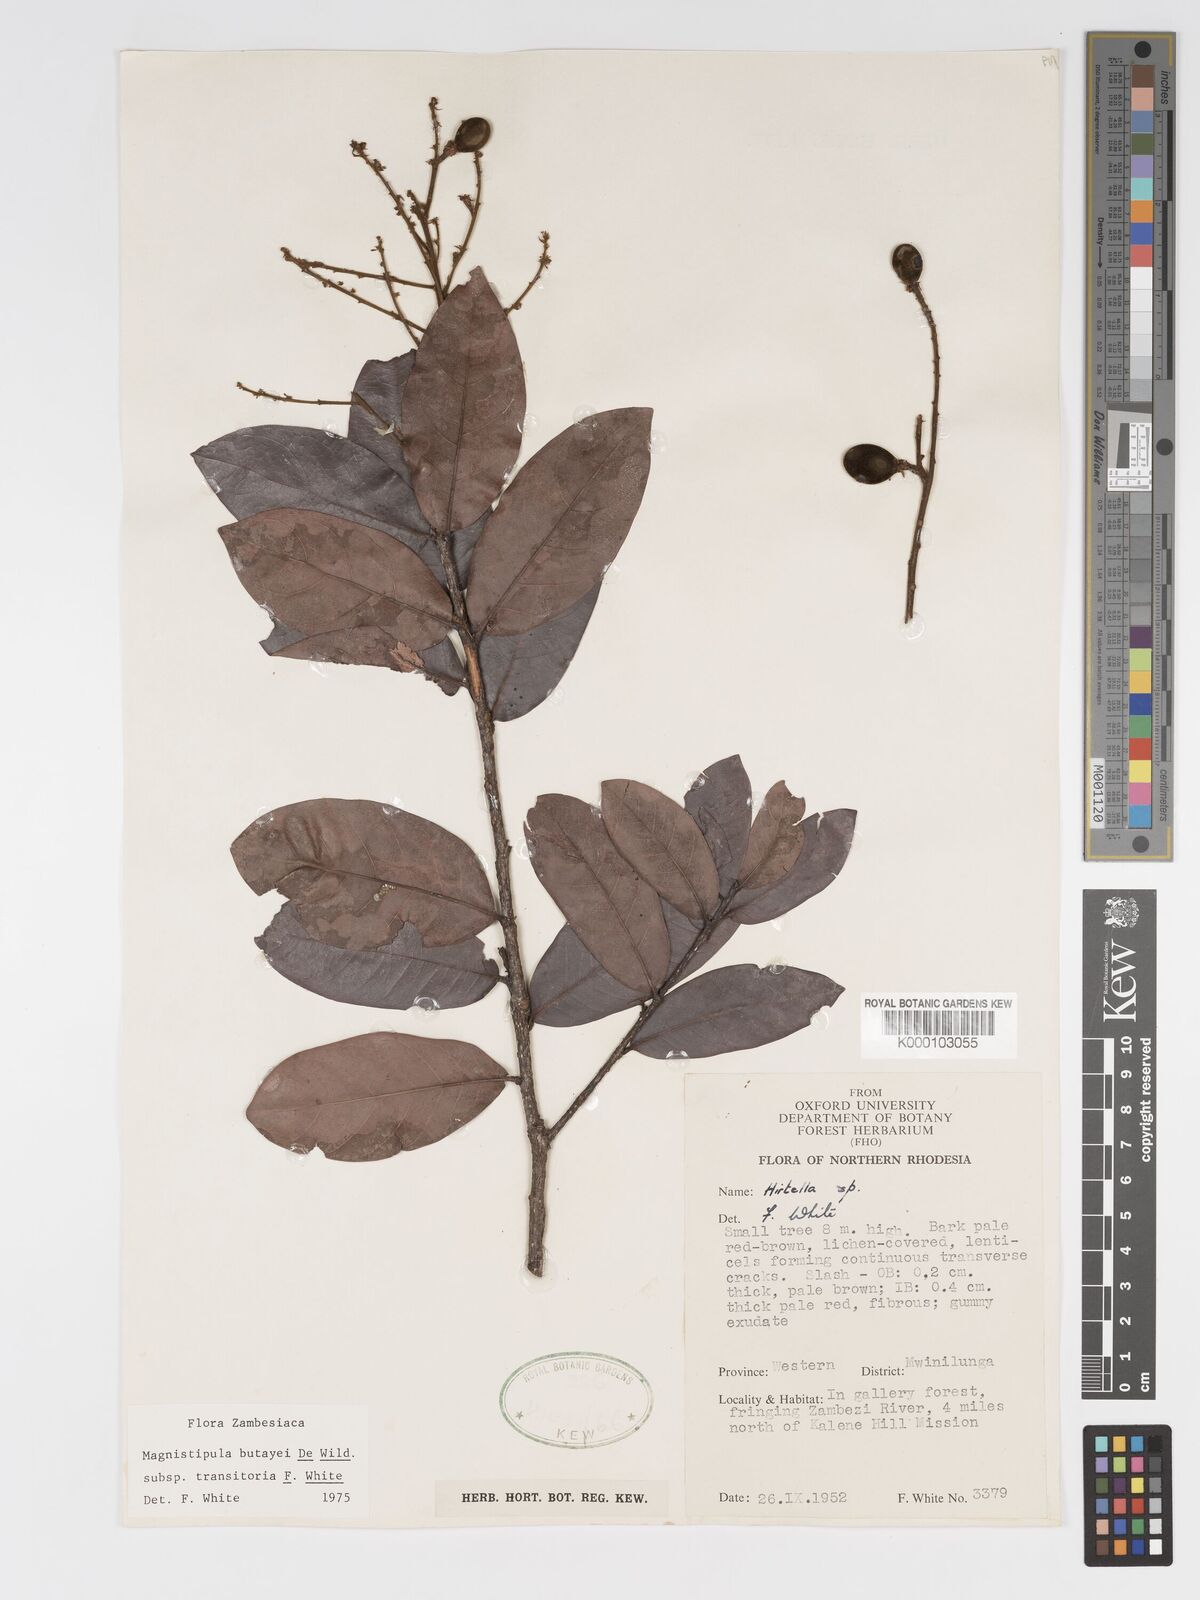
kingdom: Plantae
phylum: Tracheophyta
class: Magnoliopsida
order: Malpighiales
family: Chrysobalanaceae
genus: Magnistipula
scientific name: Magnistipula butayei
